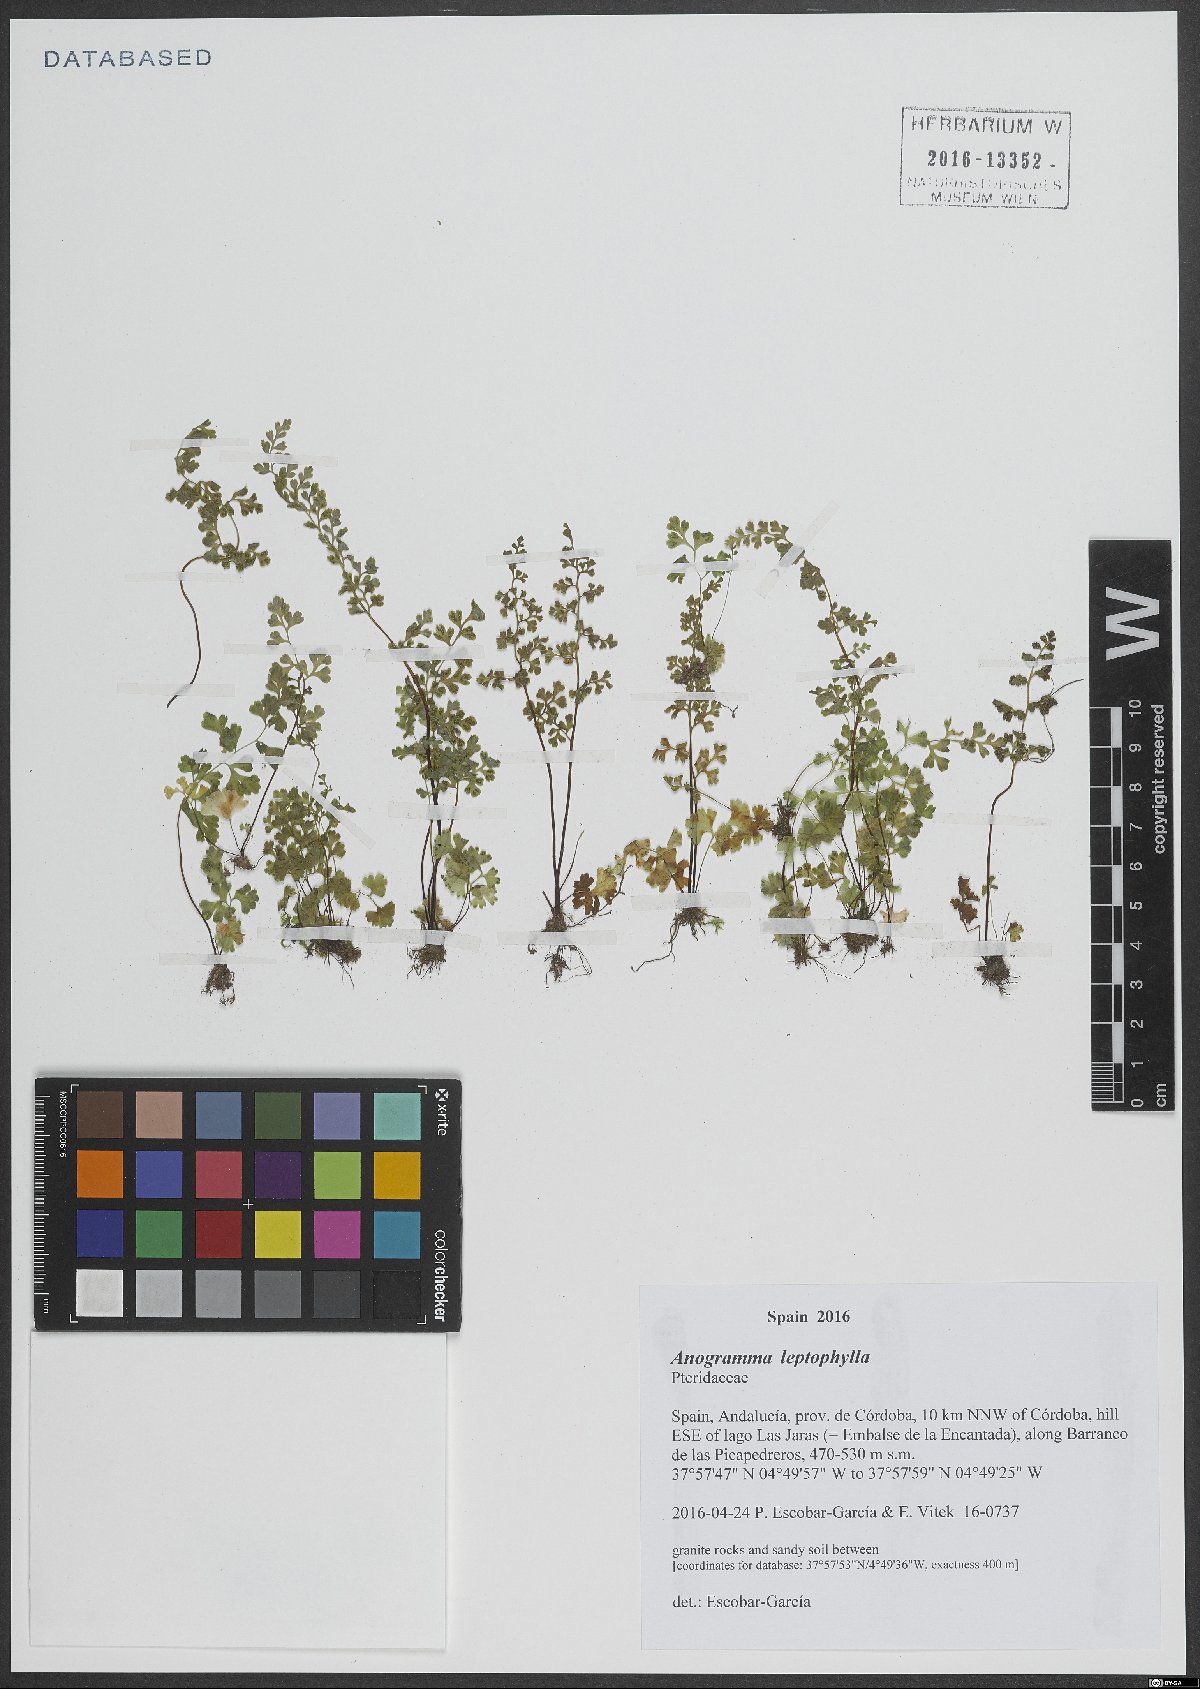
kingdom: Plantae
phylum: Tracheophyta
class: Polypodiopsida
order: Polypodiales
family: Pteridaceae
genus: Anogramma
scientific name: Anogramma leptophylla
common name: Jersey fern
